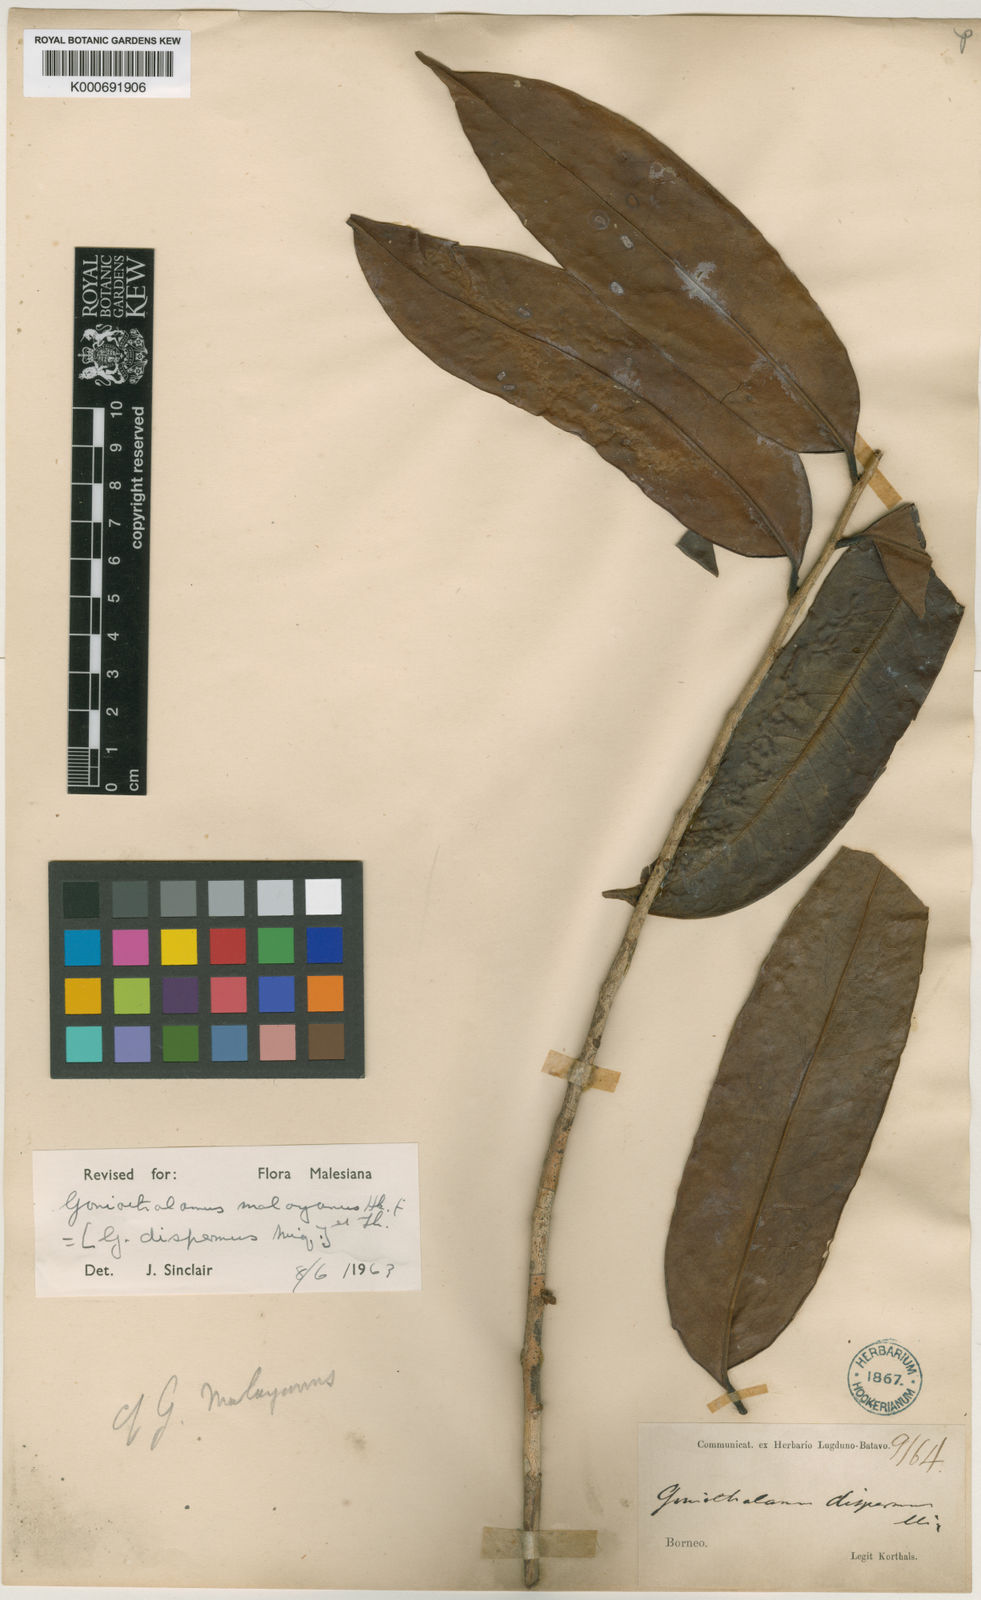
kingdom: Plantae
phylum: Tracheophyta
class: Magnoliopsida
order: Magnoliales
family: Annonaceae
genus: Goniothalamus
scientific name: Goniothalamus malayanus
